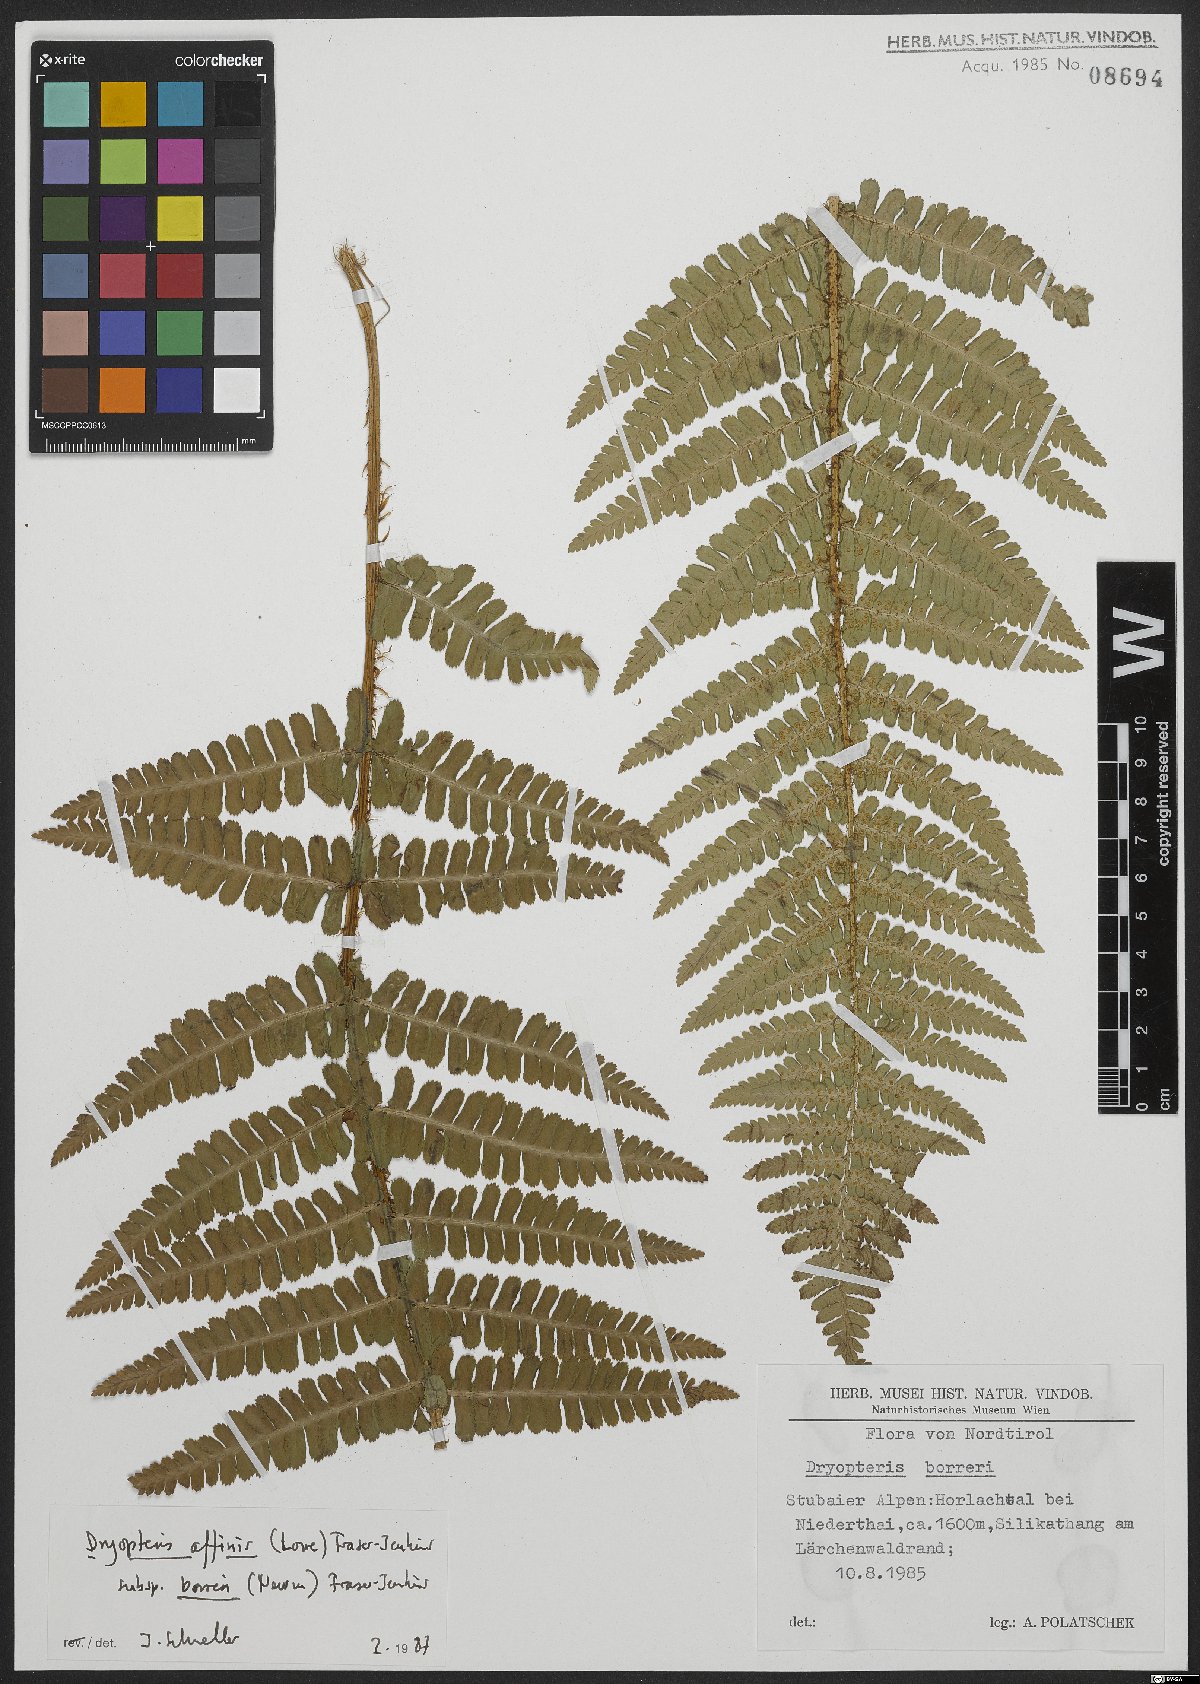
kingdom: Plantae
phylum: Tracheophyta
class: Polypodiopsida
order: Polypodiales
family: Dryopteridaceae
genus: Dryopteris
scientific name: Dryopteris cambrensis
